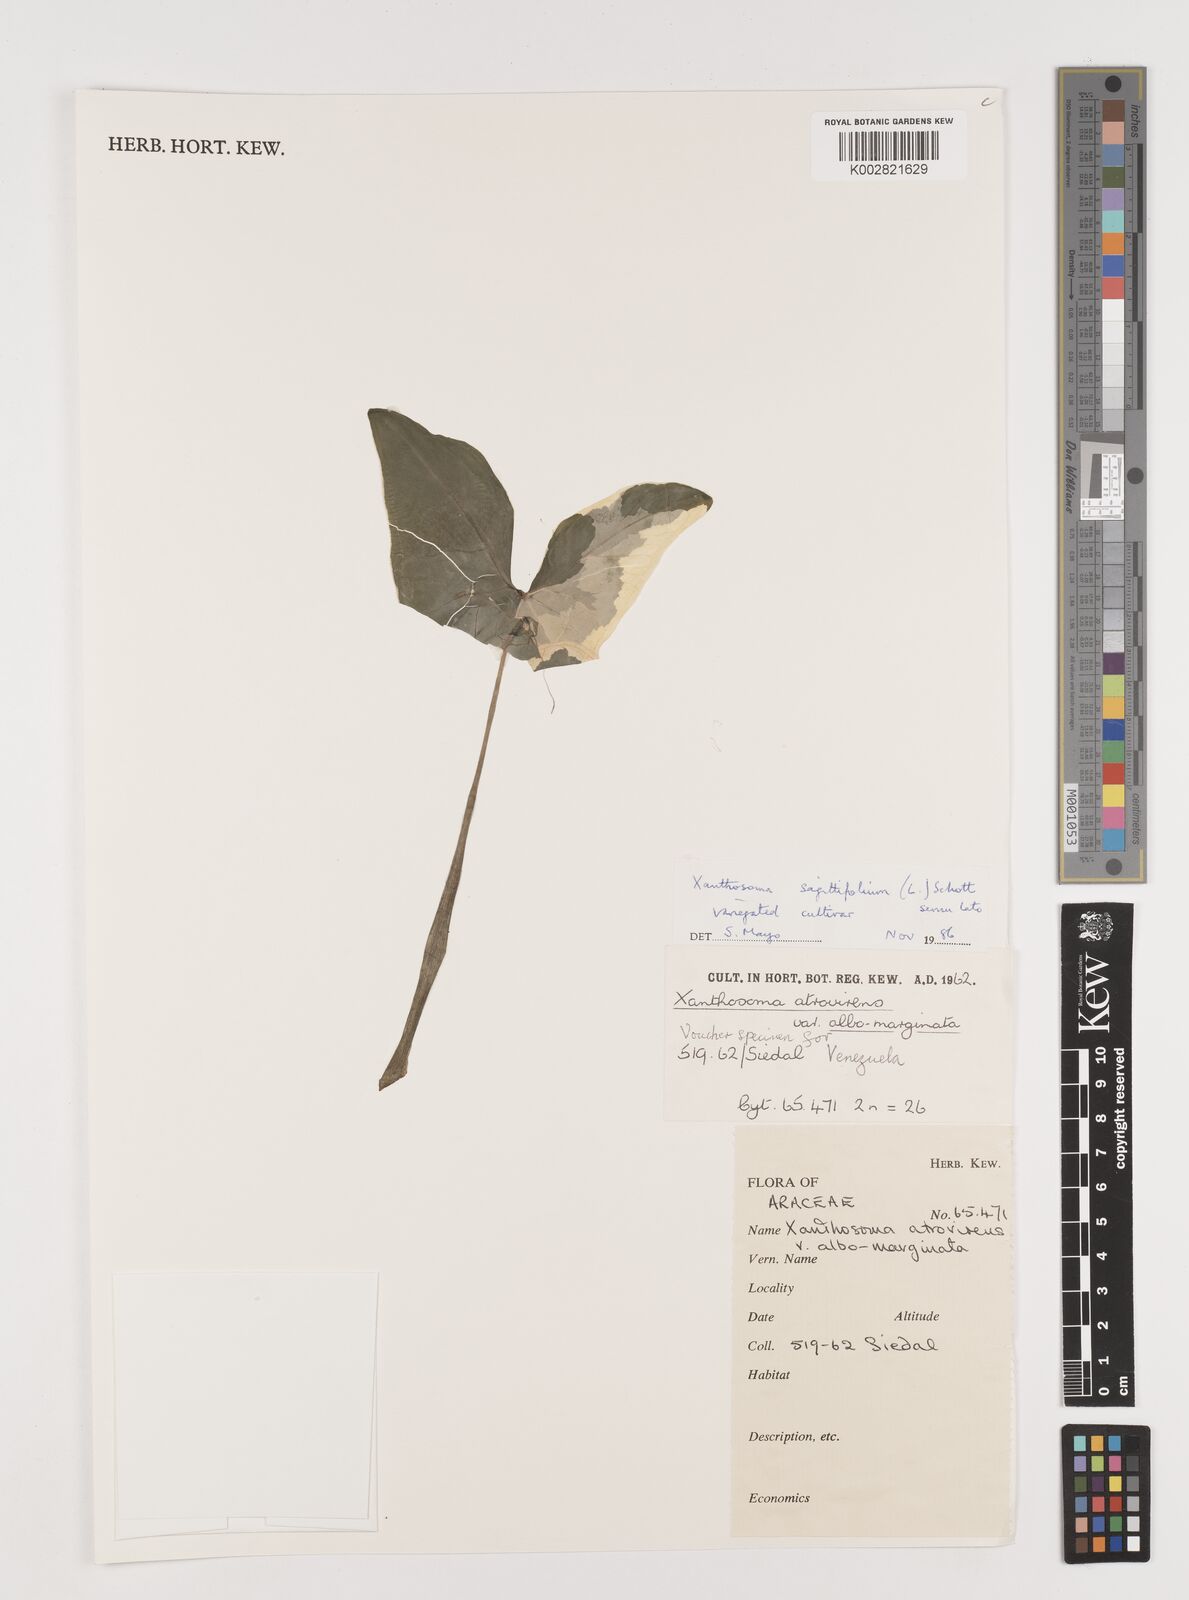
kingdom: Plantae
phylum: Tracheophyta
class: Liliopsida
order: Alismatales
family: Araceae
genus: Xanthosoma
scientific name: Xanthosoma sagittifolium
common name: Arrowleaf elephant's ear
